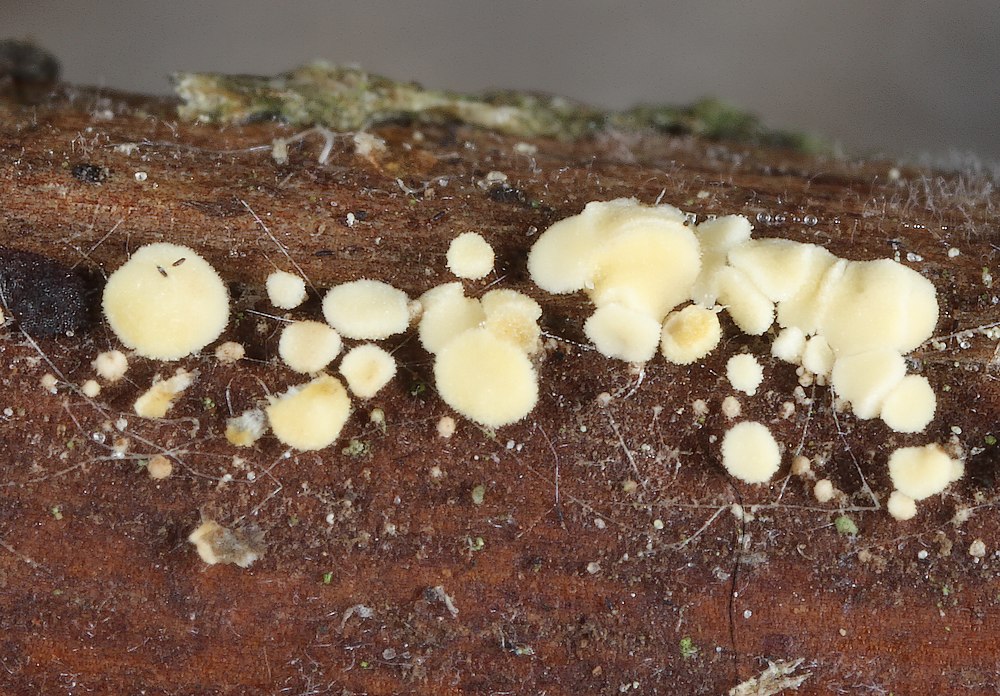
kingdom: Fungi
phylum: Ascomycota
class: Leotiomycetes
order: Helotiales
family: Pezizellaceae
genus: Calycellina
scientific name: Calycellina separabilis
